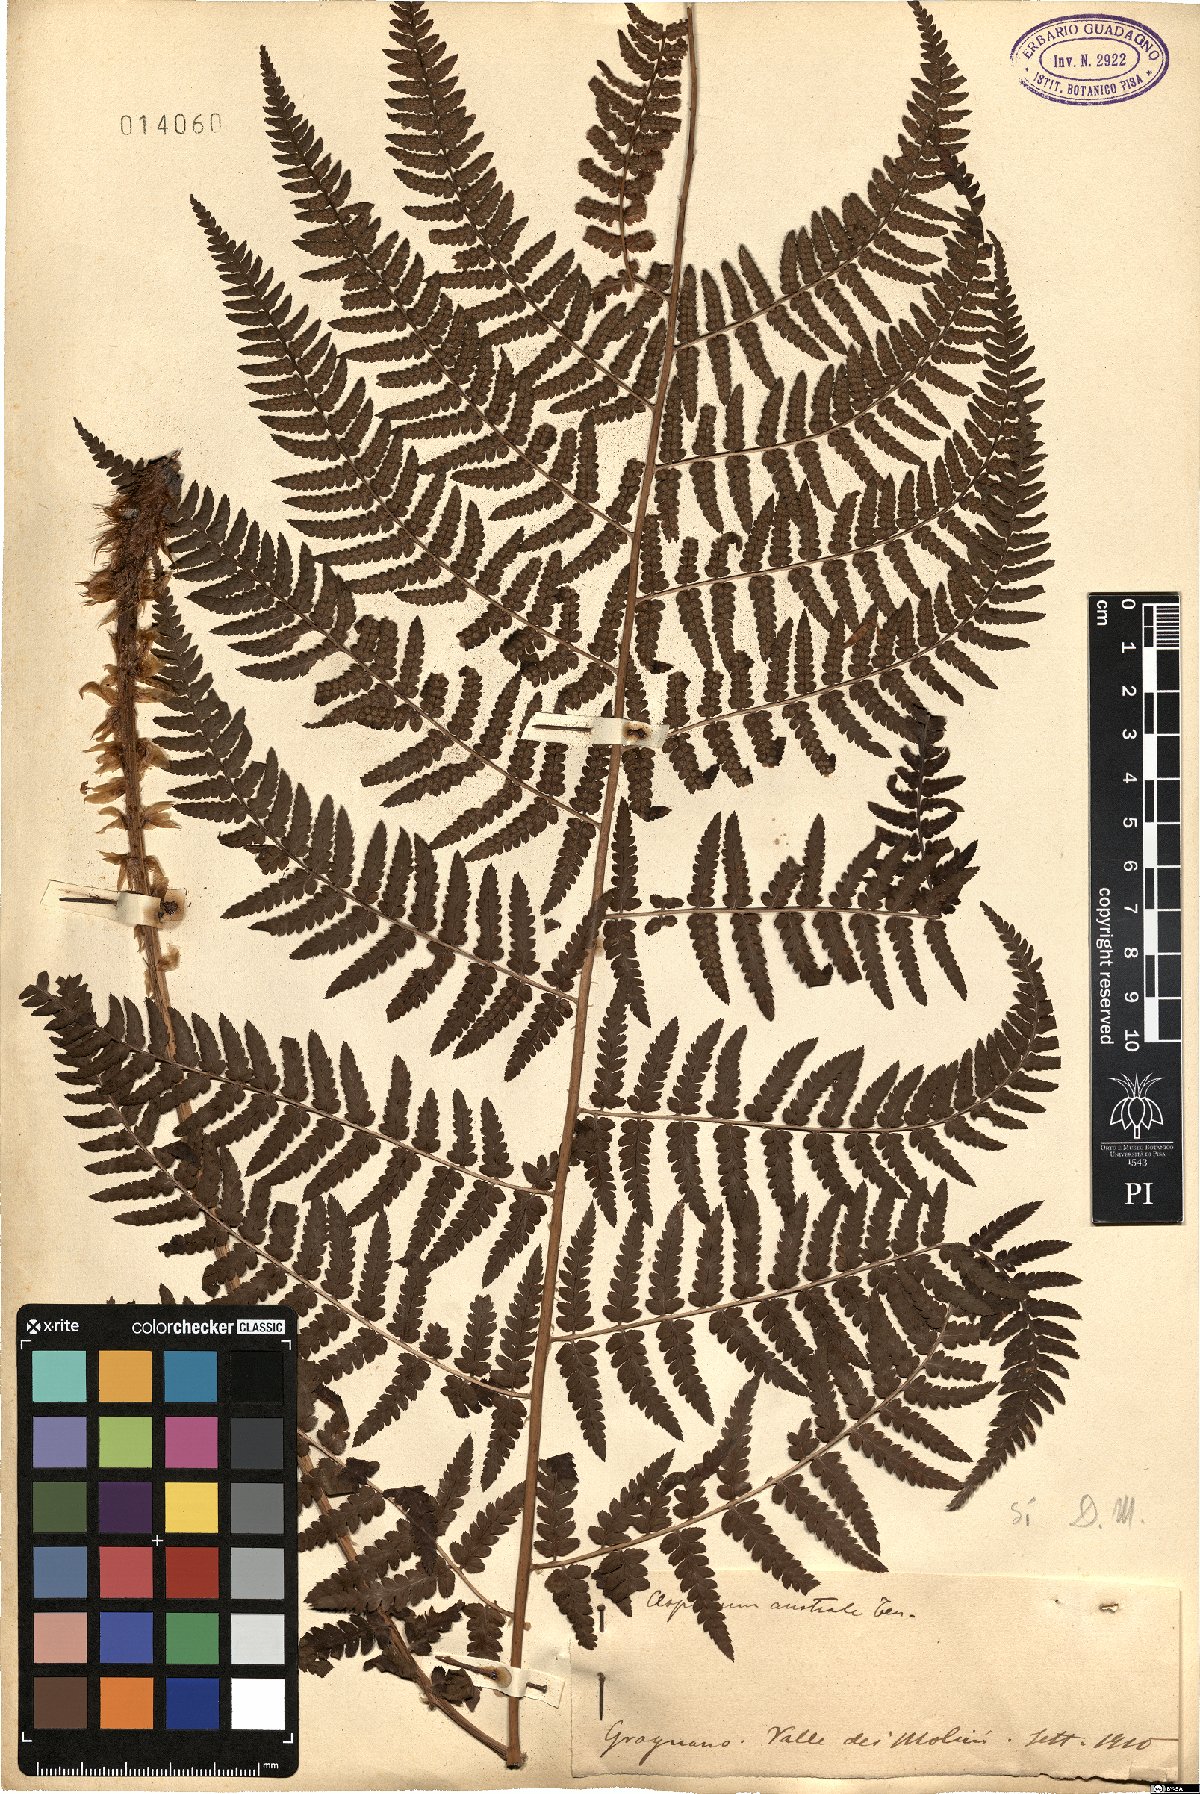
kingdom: Plantae
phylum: Tracheophyta
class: Polypodiopsida
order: Polypodiales
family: Dryopteridaceae
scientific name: Dryopteridaceae
